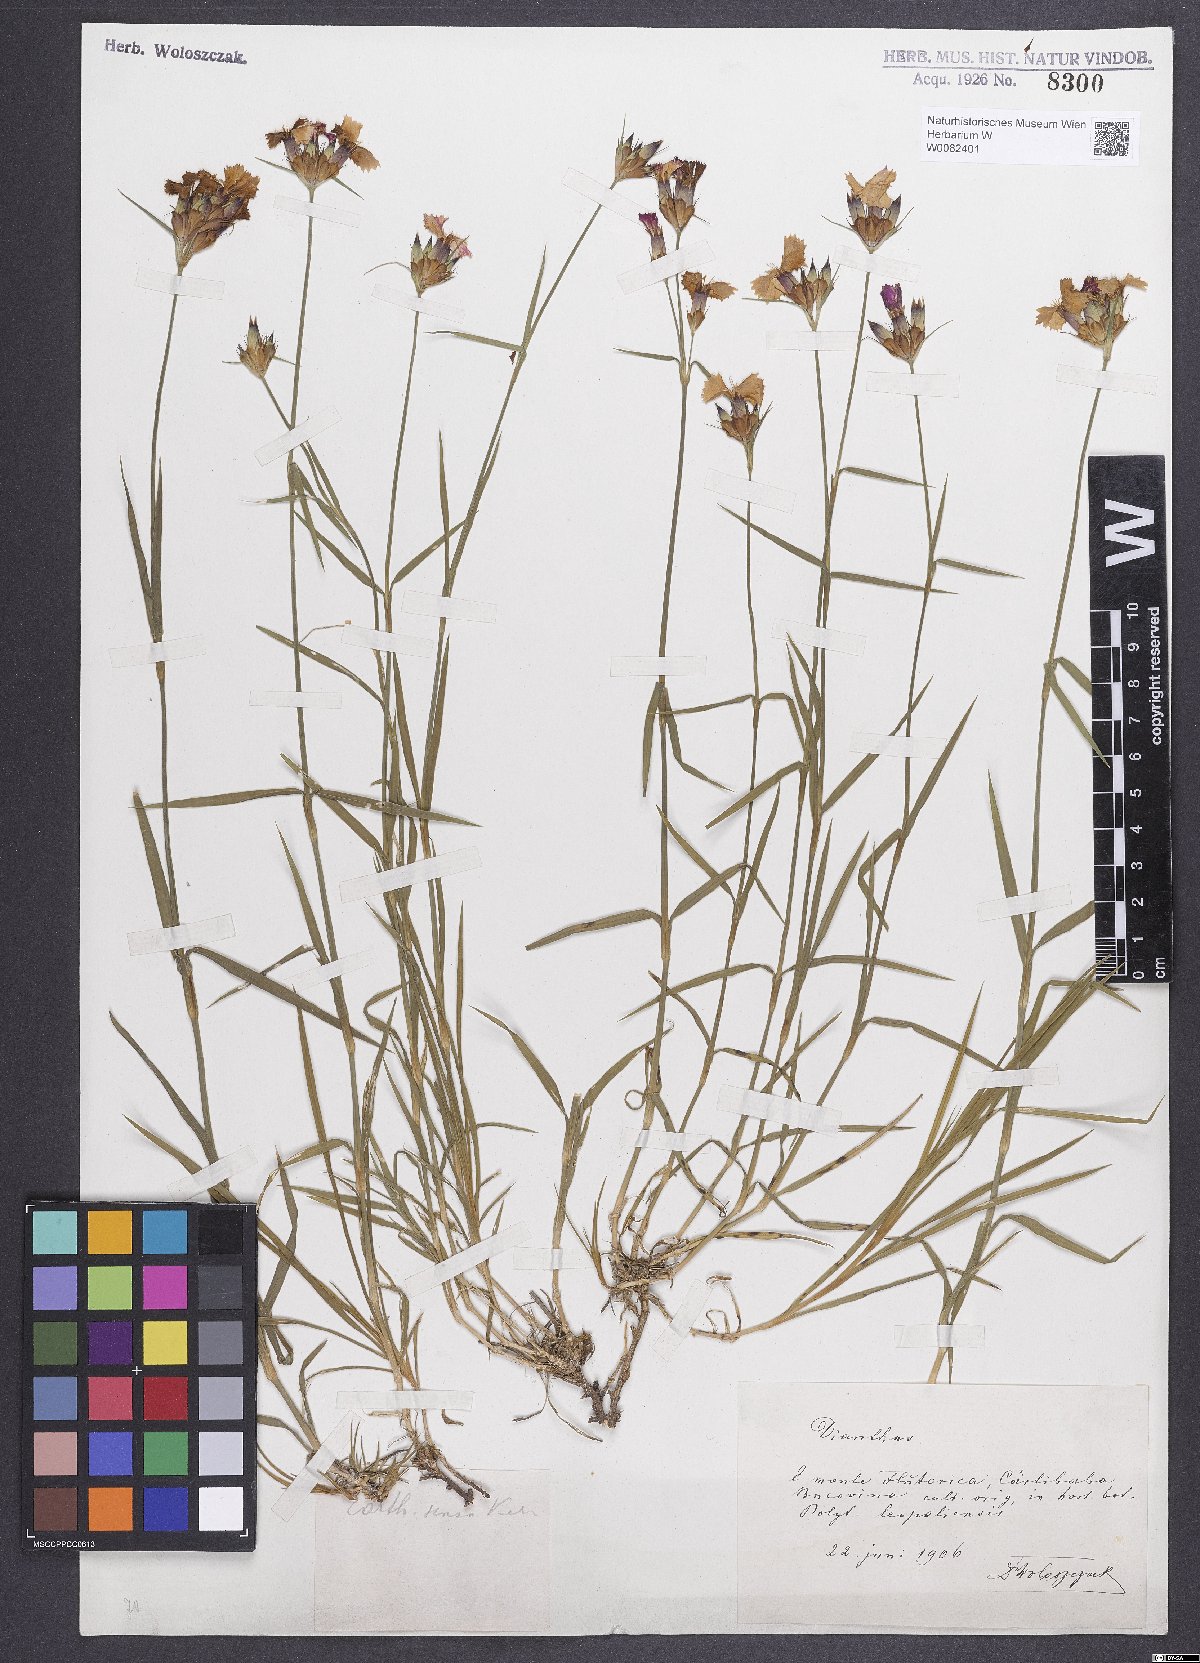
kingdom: Plantae
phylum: Tracheophyta
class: Magnoliopsida
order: Caryophyllales
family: Caryophyllaceae
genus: Dianthus
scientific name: Dianthus carthusianorum
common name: Carthusian pink
